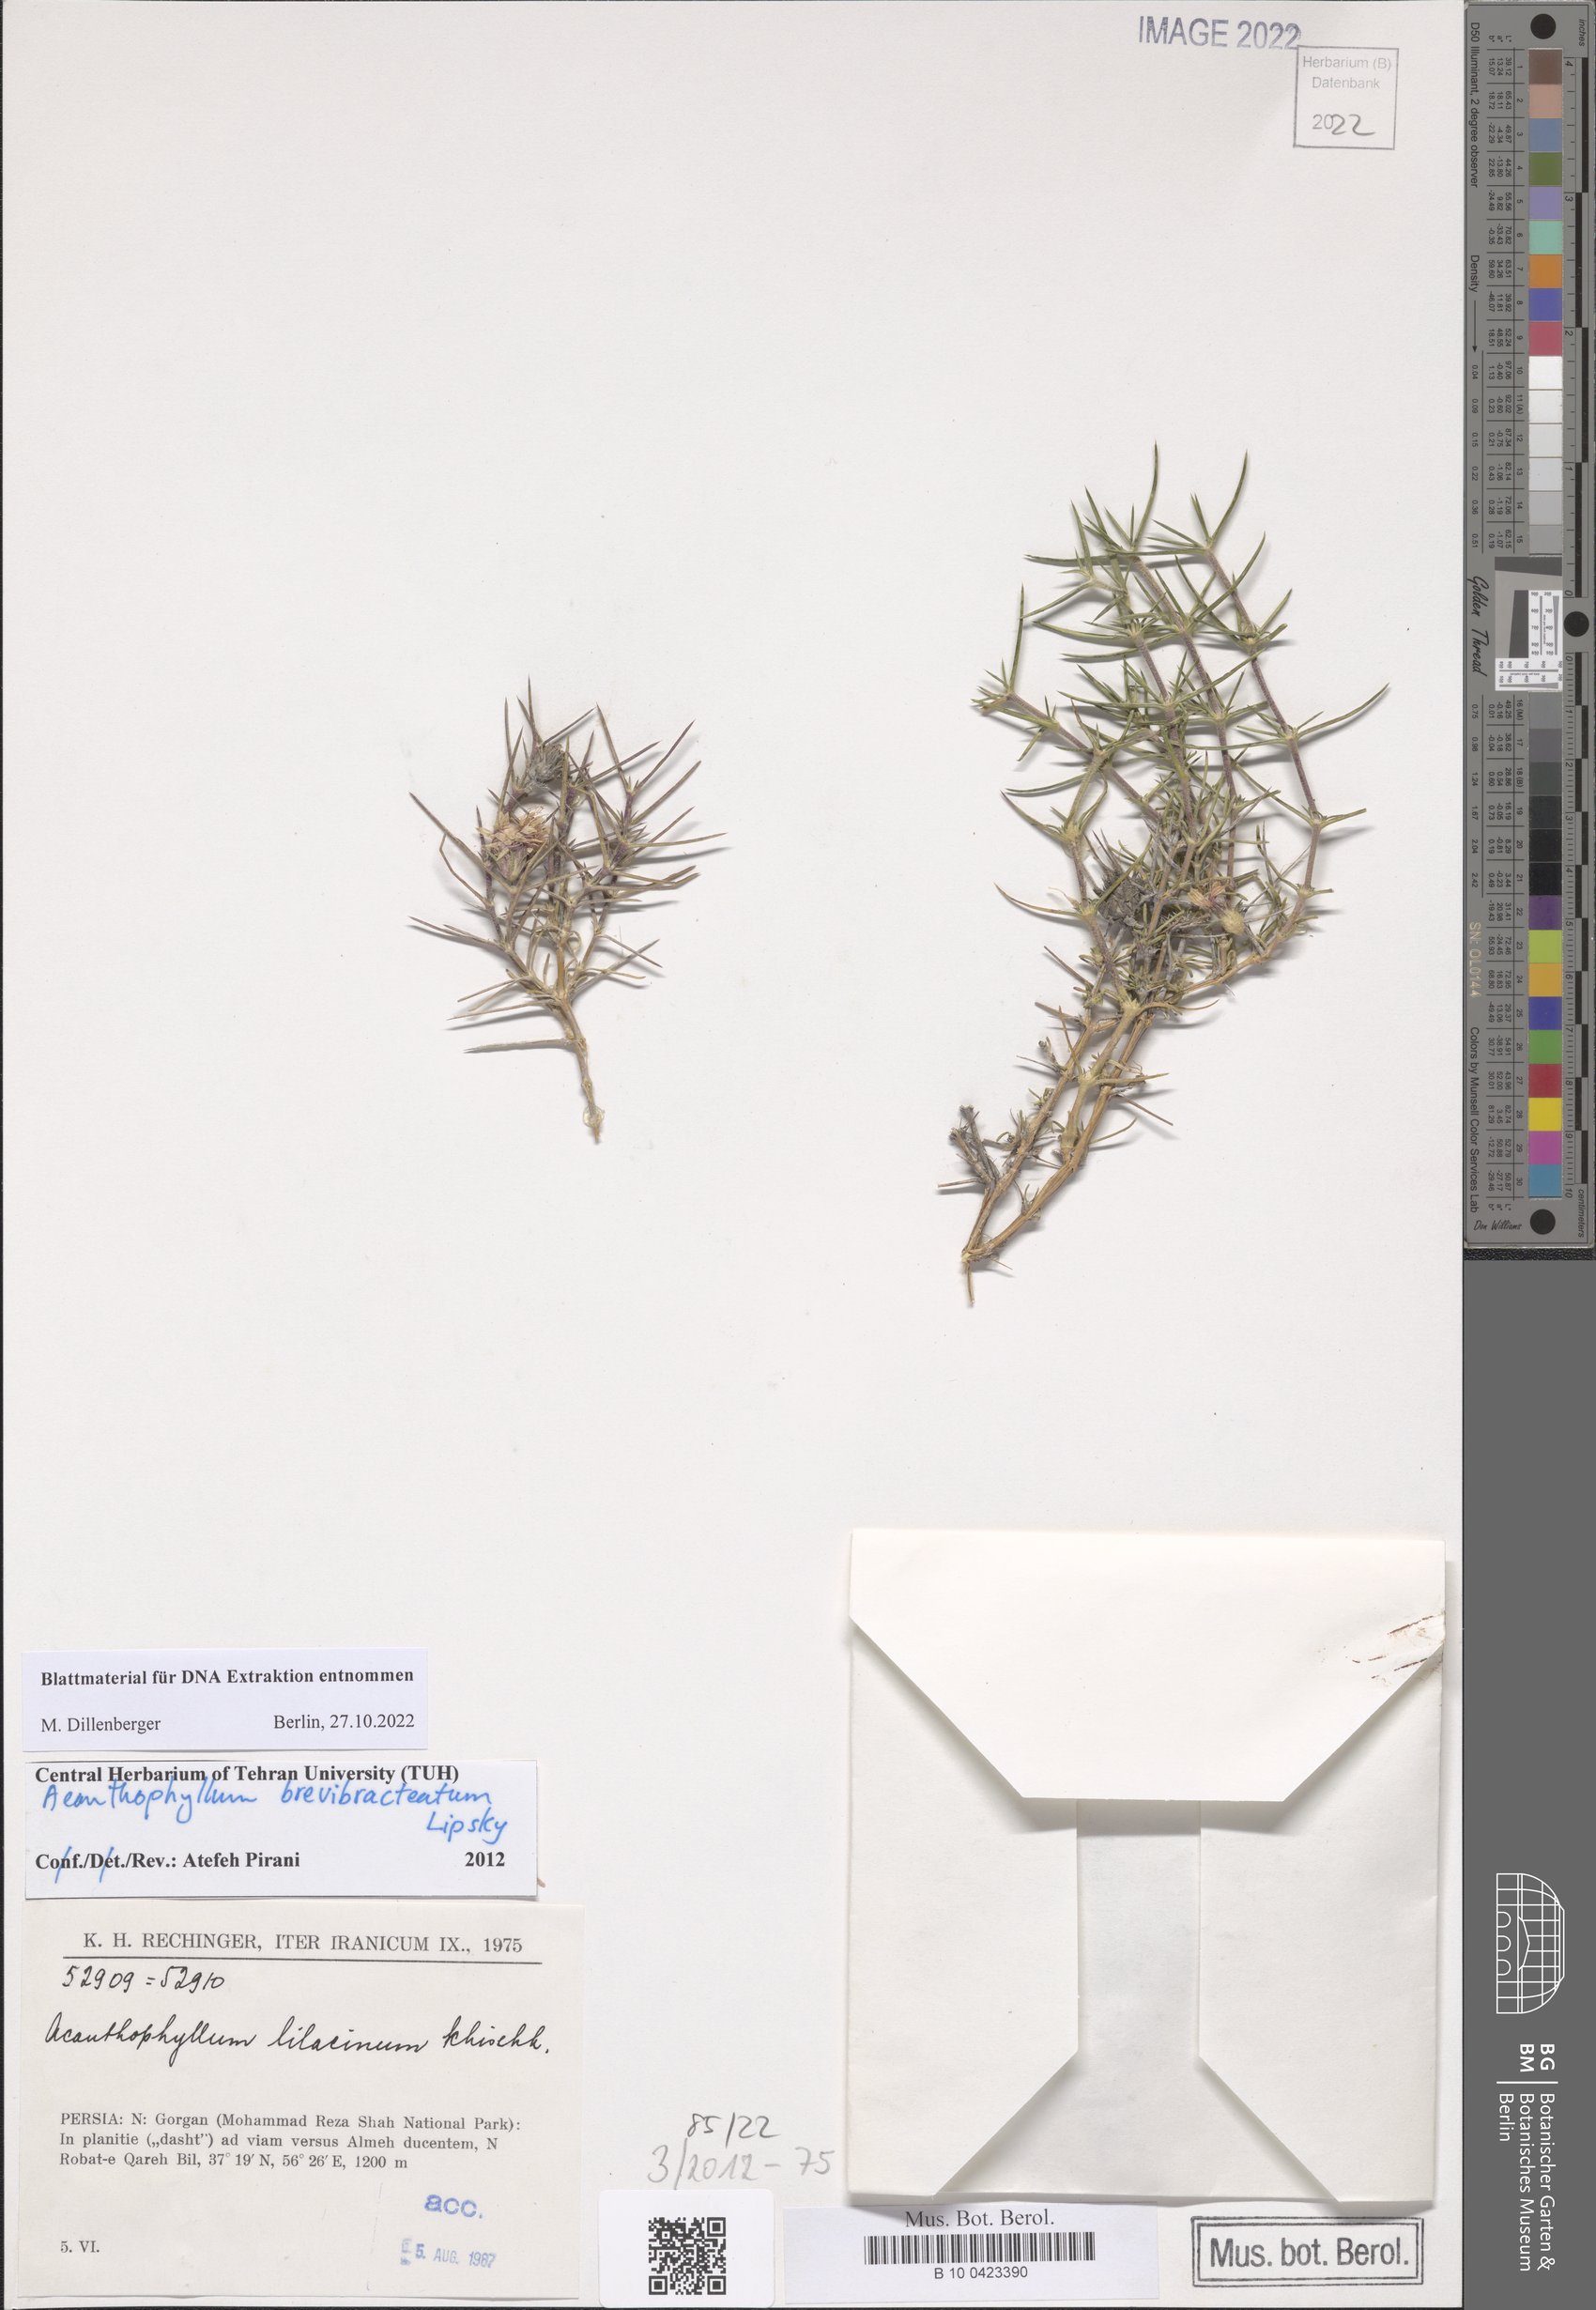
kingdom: Plantae
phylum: Tracheophyta
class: Magnoliopsida
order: Caryophyllales
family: Caryophyllaceae
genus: Acanthophyllum
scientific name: Acanthophyllum brevibracteatum
